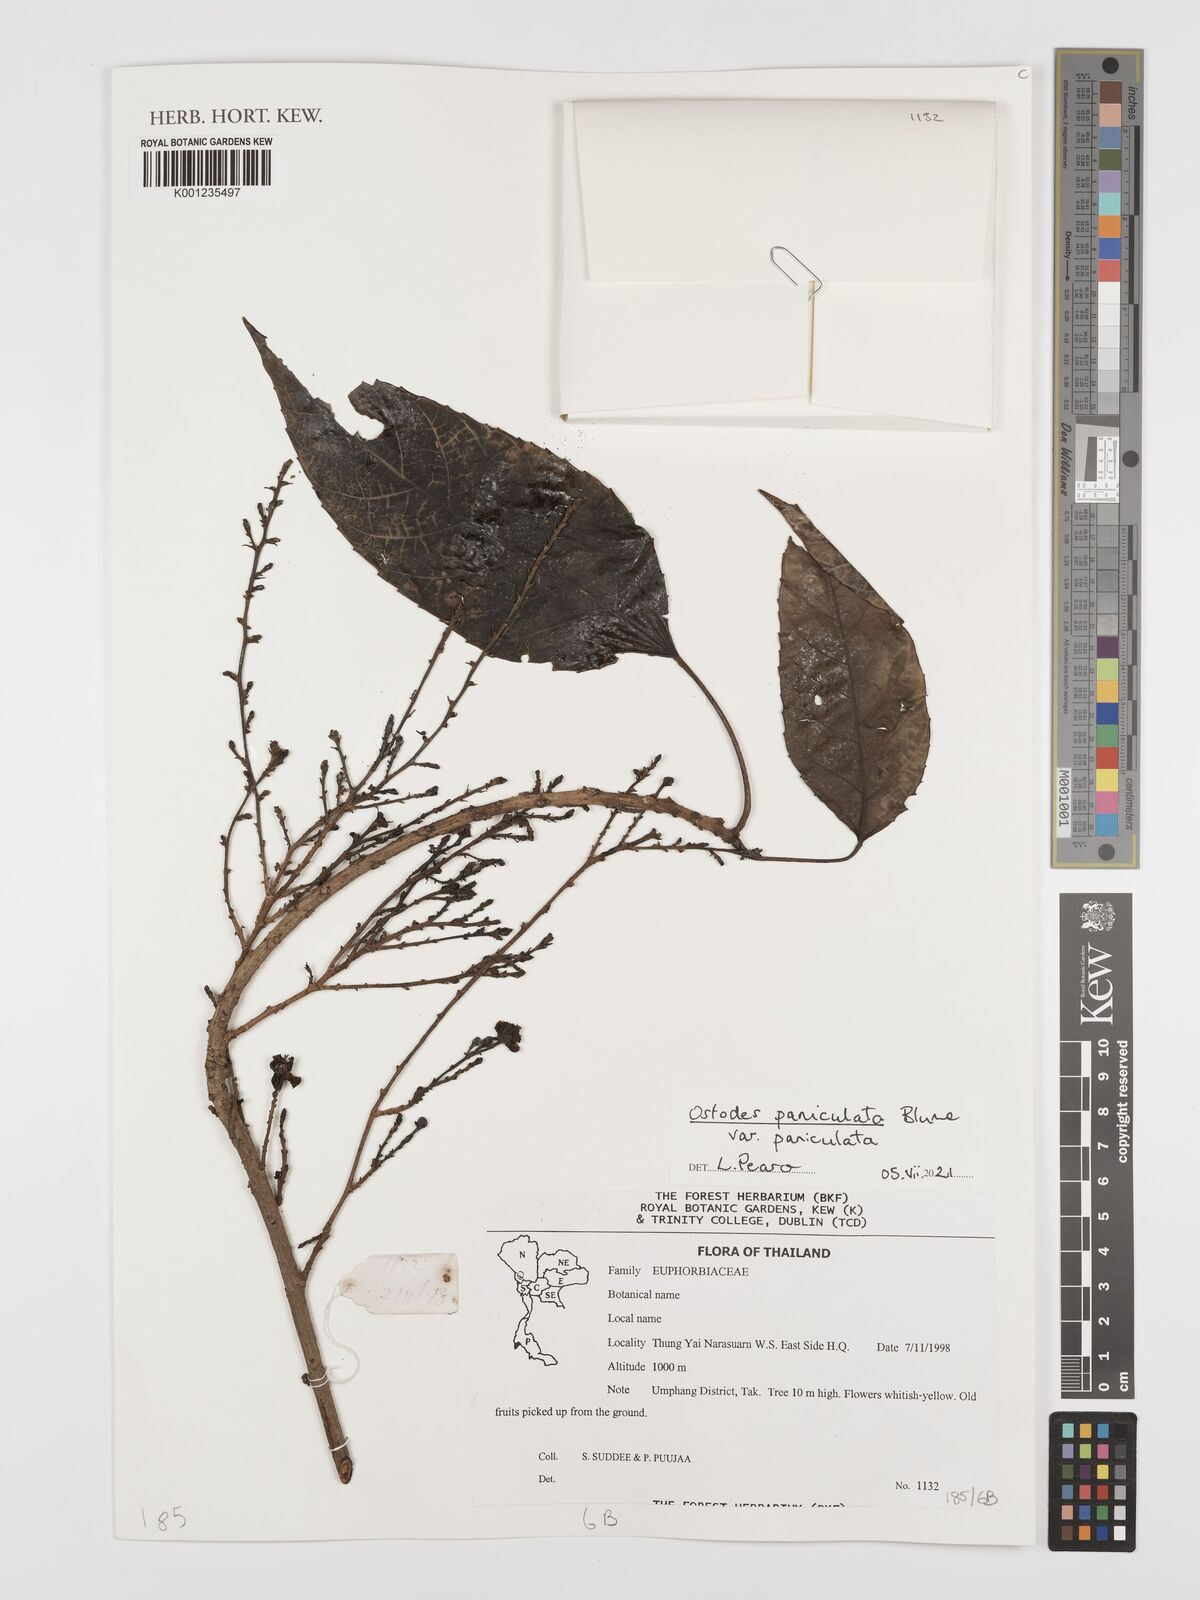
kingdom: Plantae
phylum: Tracheophyta
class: Magnoliopsida
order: Malpighiales
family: Euphorbiaceae
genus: Ostodes
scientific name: Ostodes paniculata
